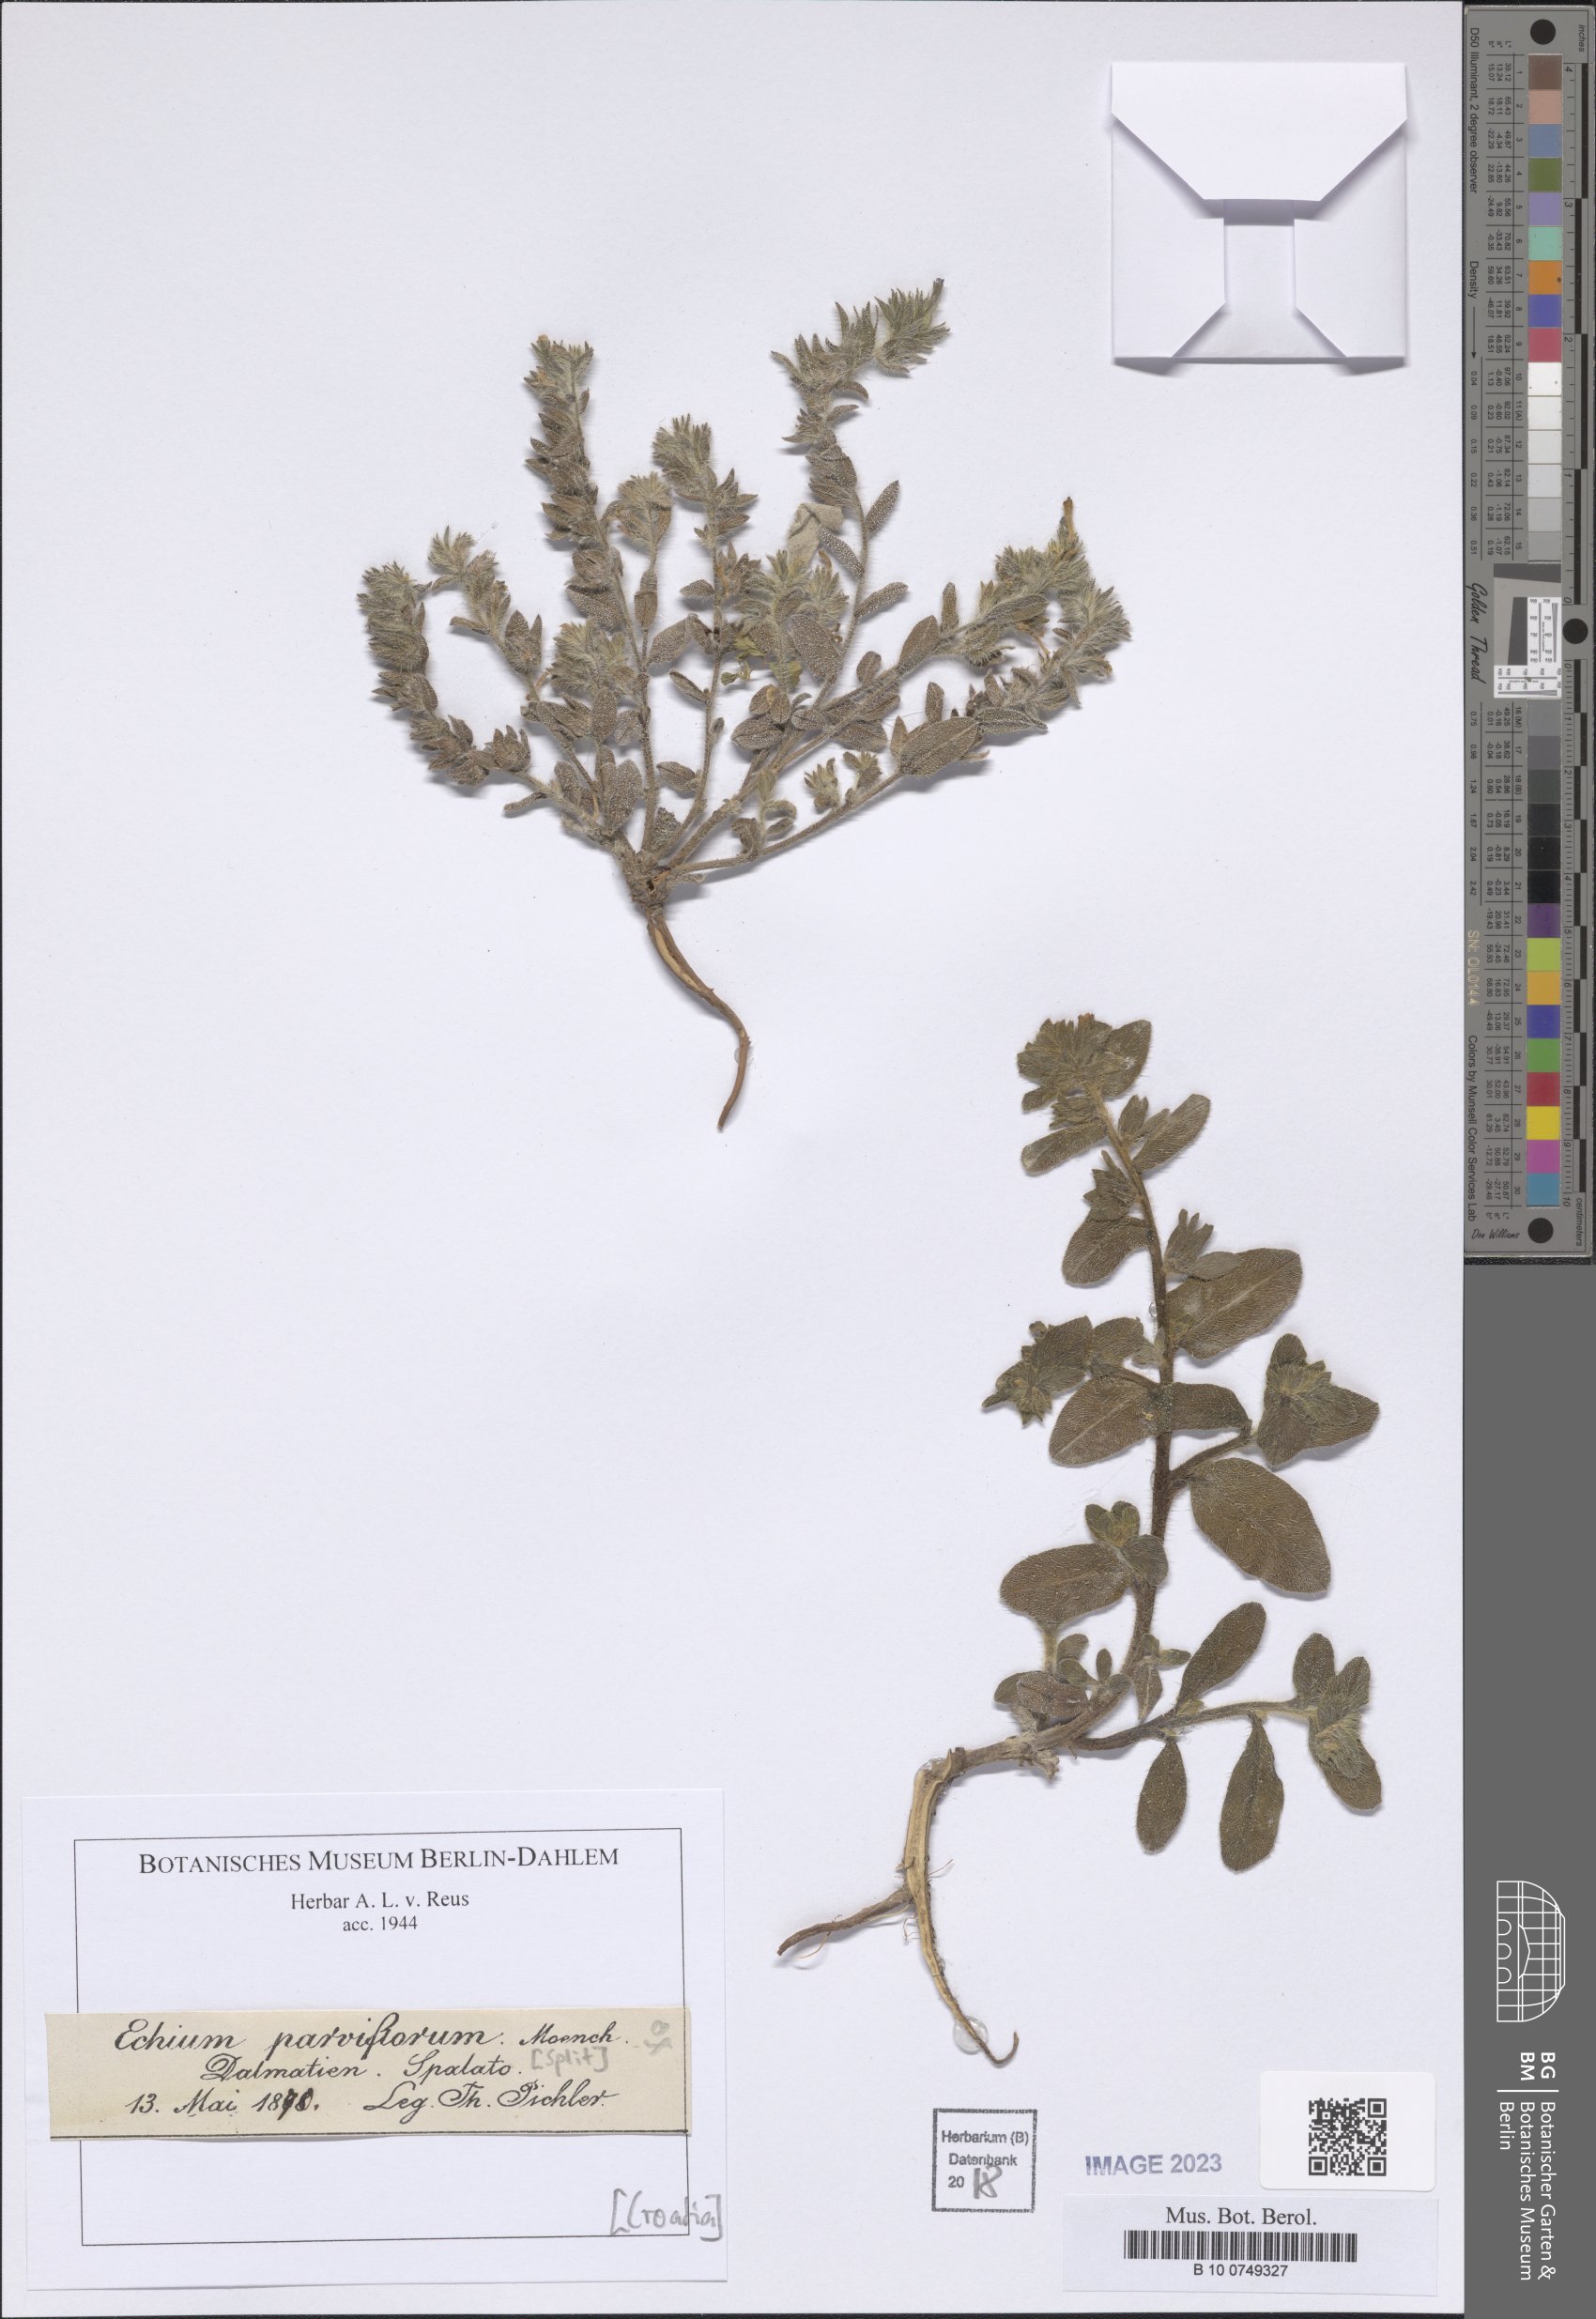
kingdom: Plantae
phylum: Tracheophyta
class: Magnoliopsida
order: Boraginales
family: Boraginaceae
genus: Echium
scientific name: Echium parviflorum
